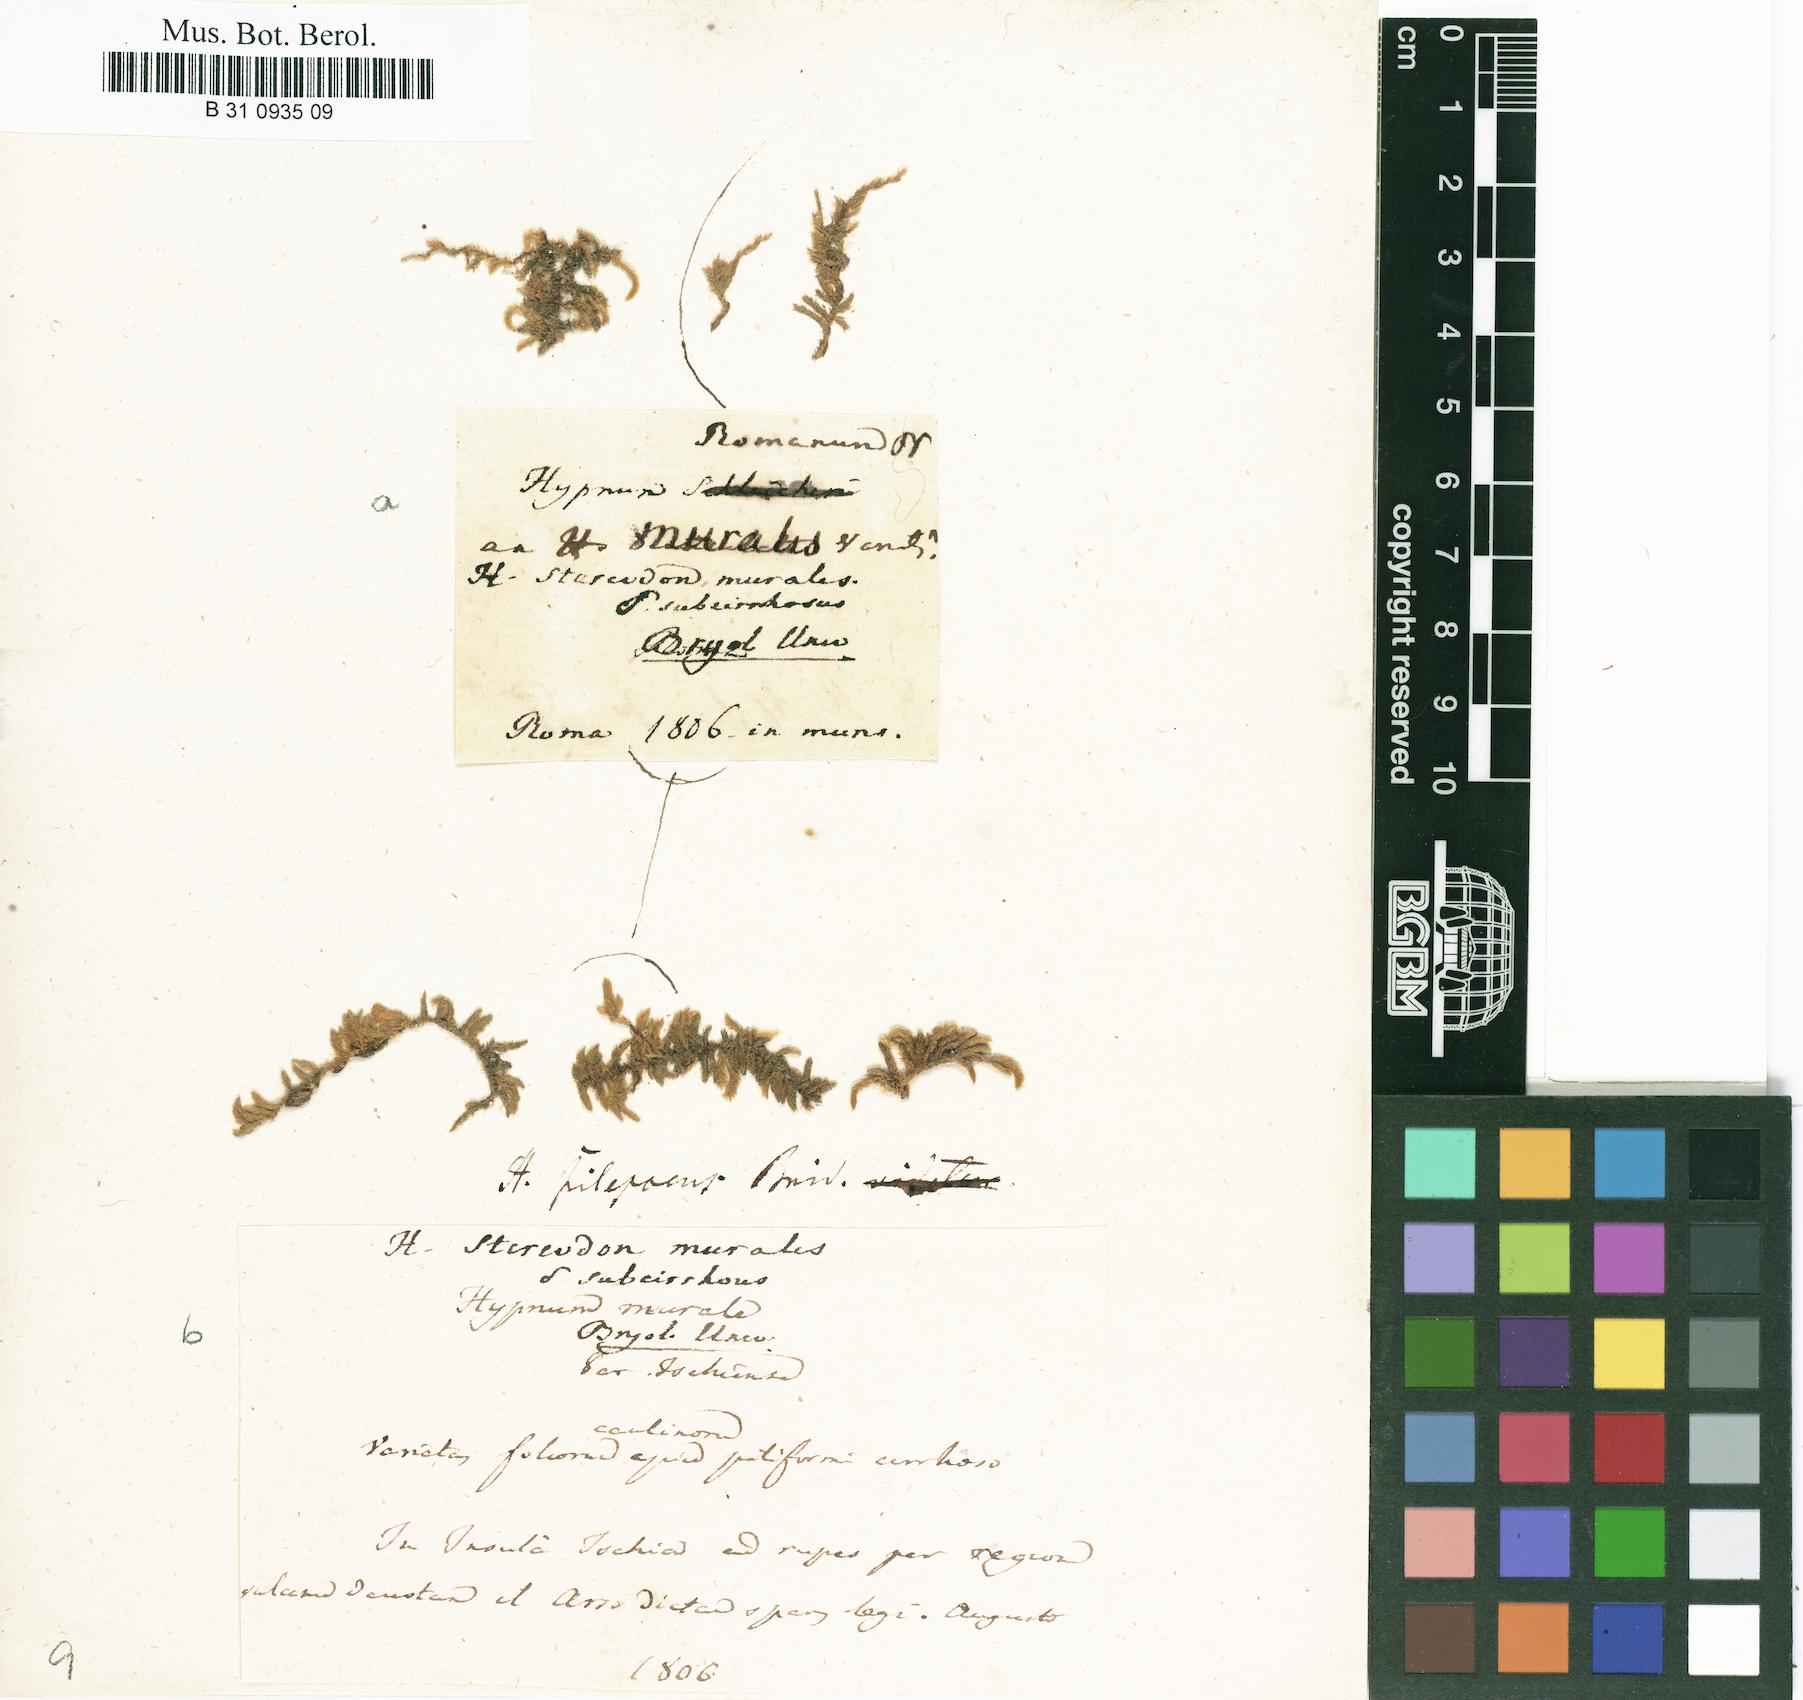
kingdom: Plantae
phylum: Bryophyta
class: Bryopsida
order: Hypnales
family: Brachytheciaceae
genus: Rhynchostegium
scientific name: Rhynchostegium murale
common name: Wall feather-moss
